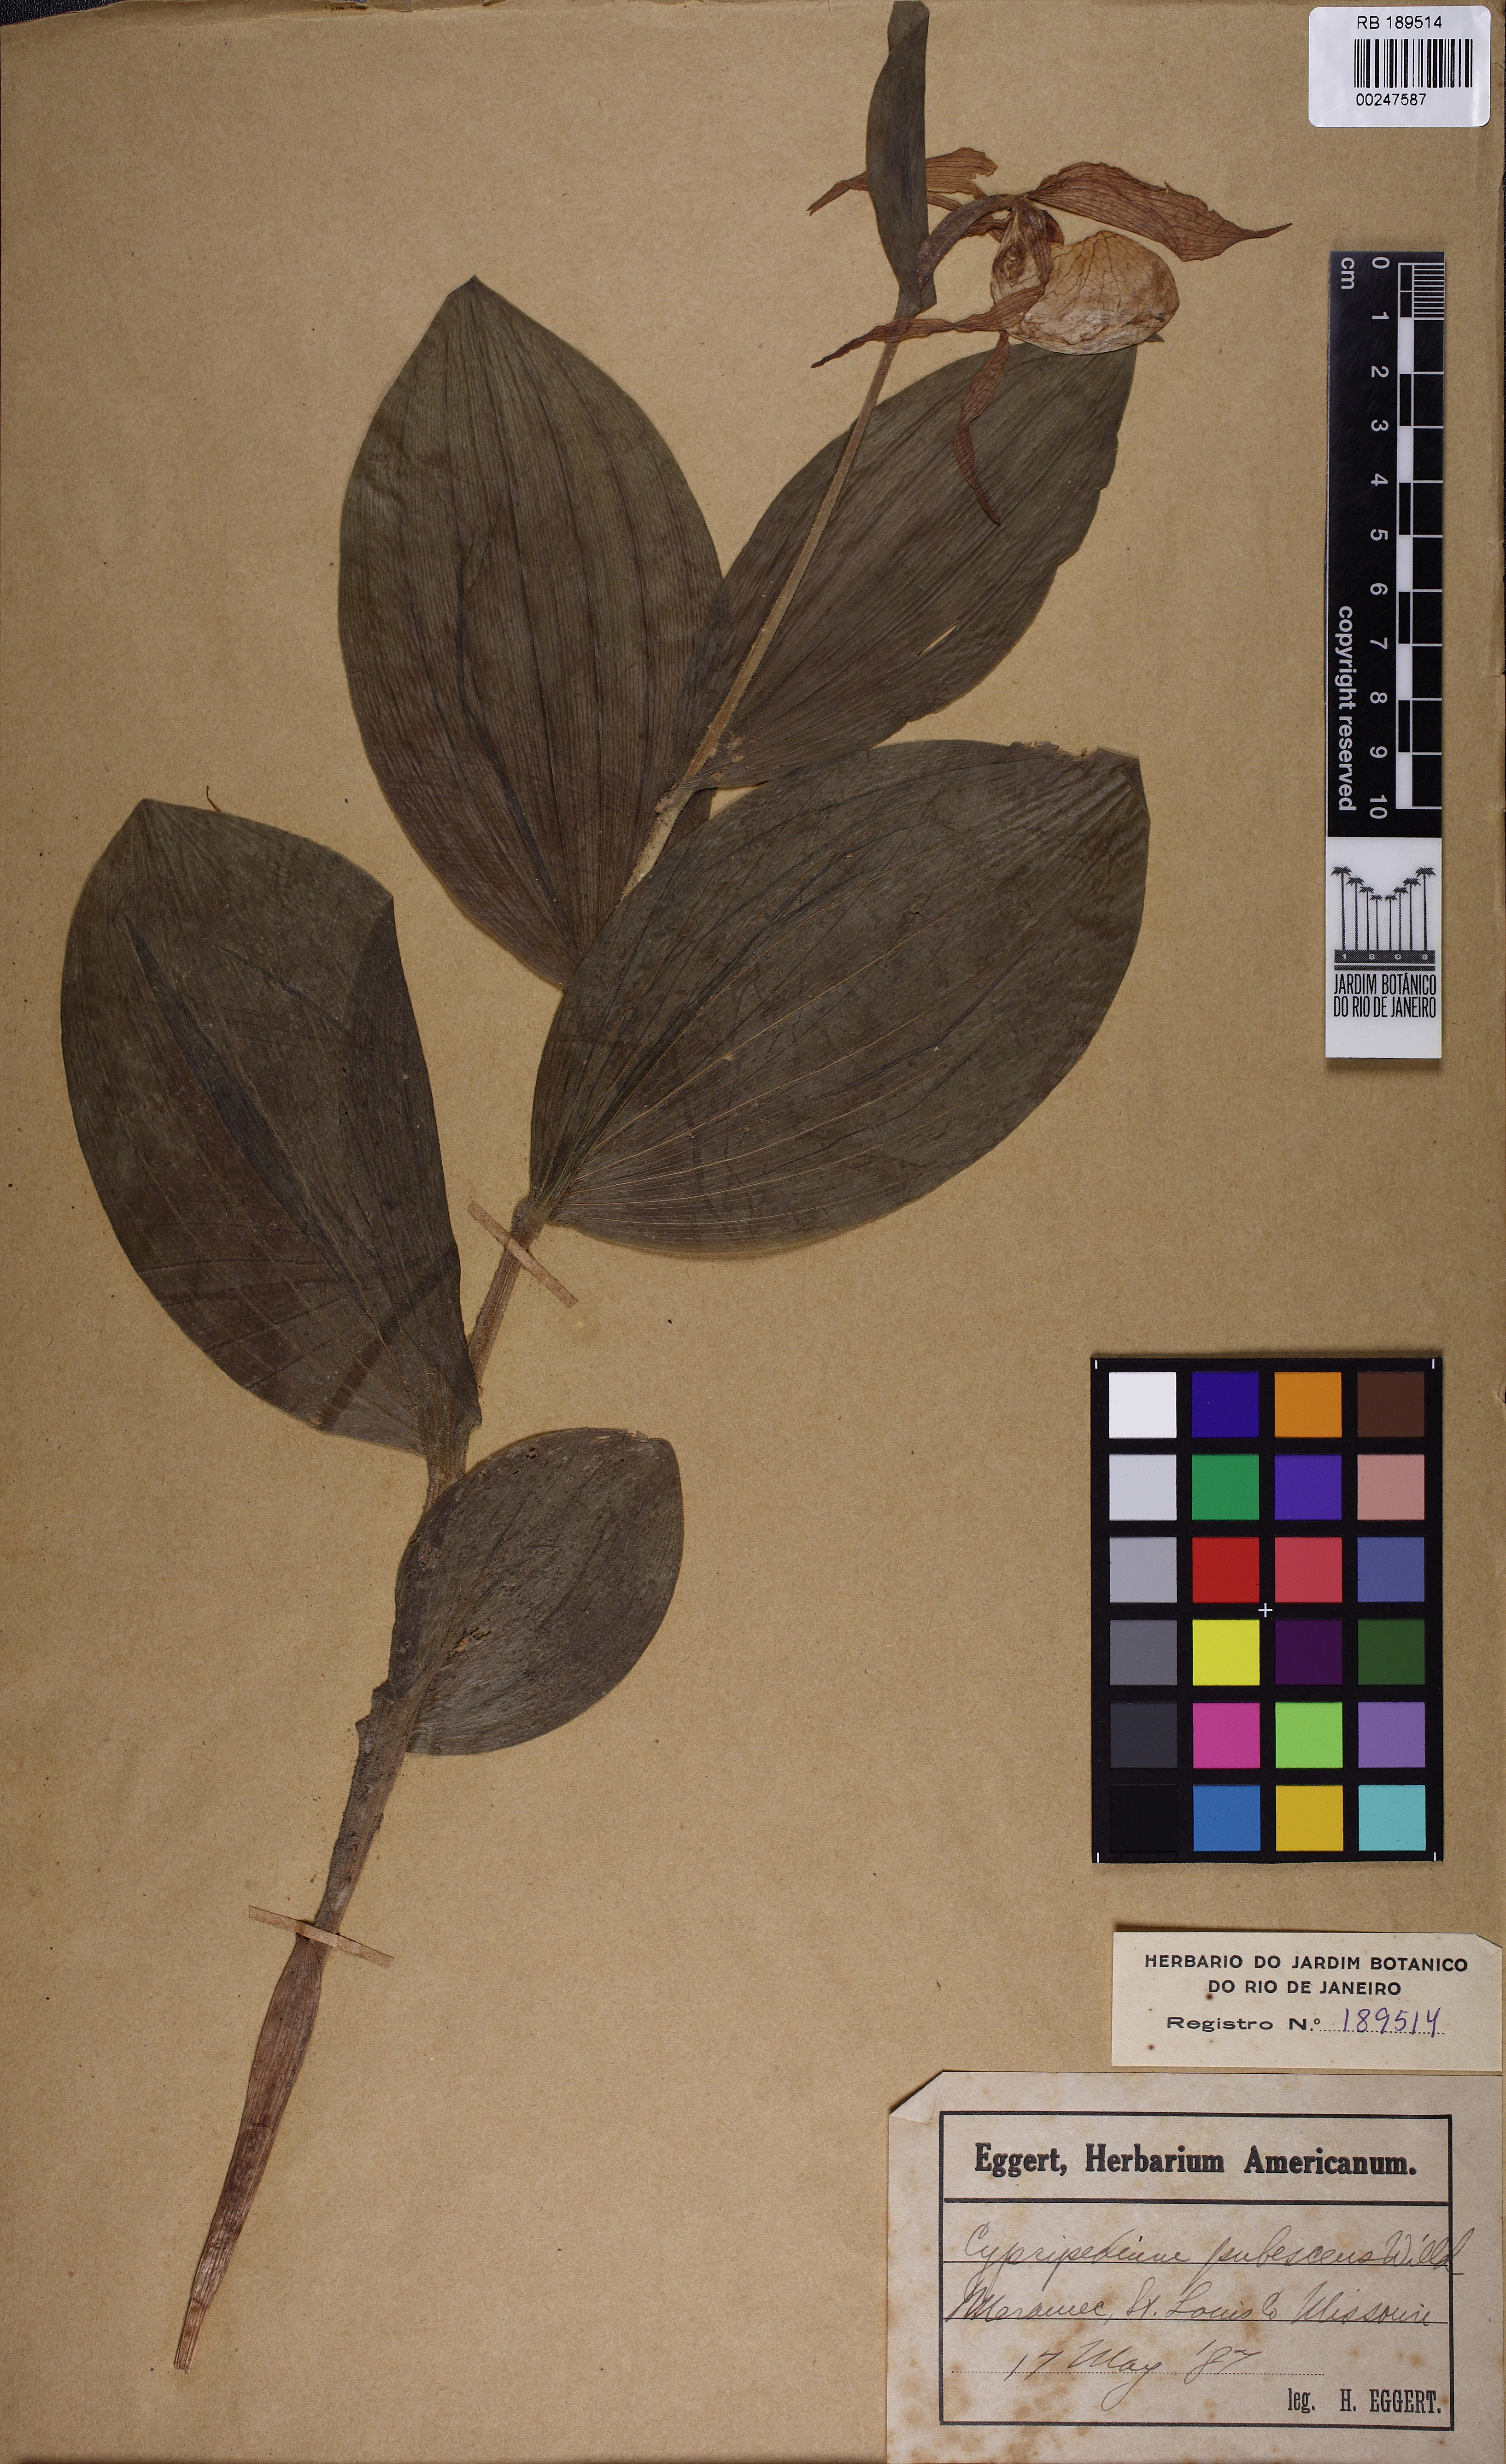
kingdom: Plantae
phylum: Tracheophyta
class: Liliopsida
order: Asparagales
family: Orchidaceae
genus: Cypripedium
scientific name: Cypripedium parviflorum
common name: American yellow lady's-slipper
